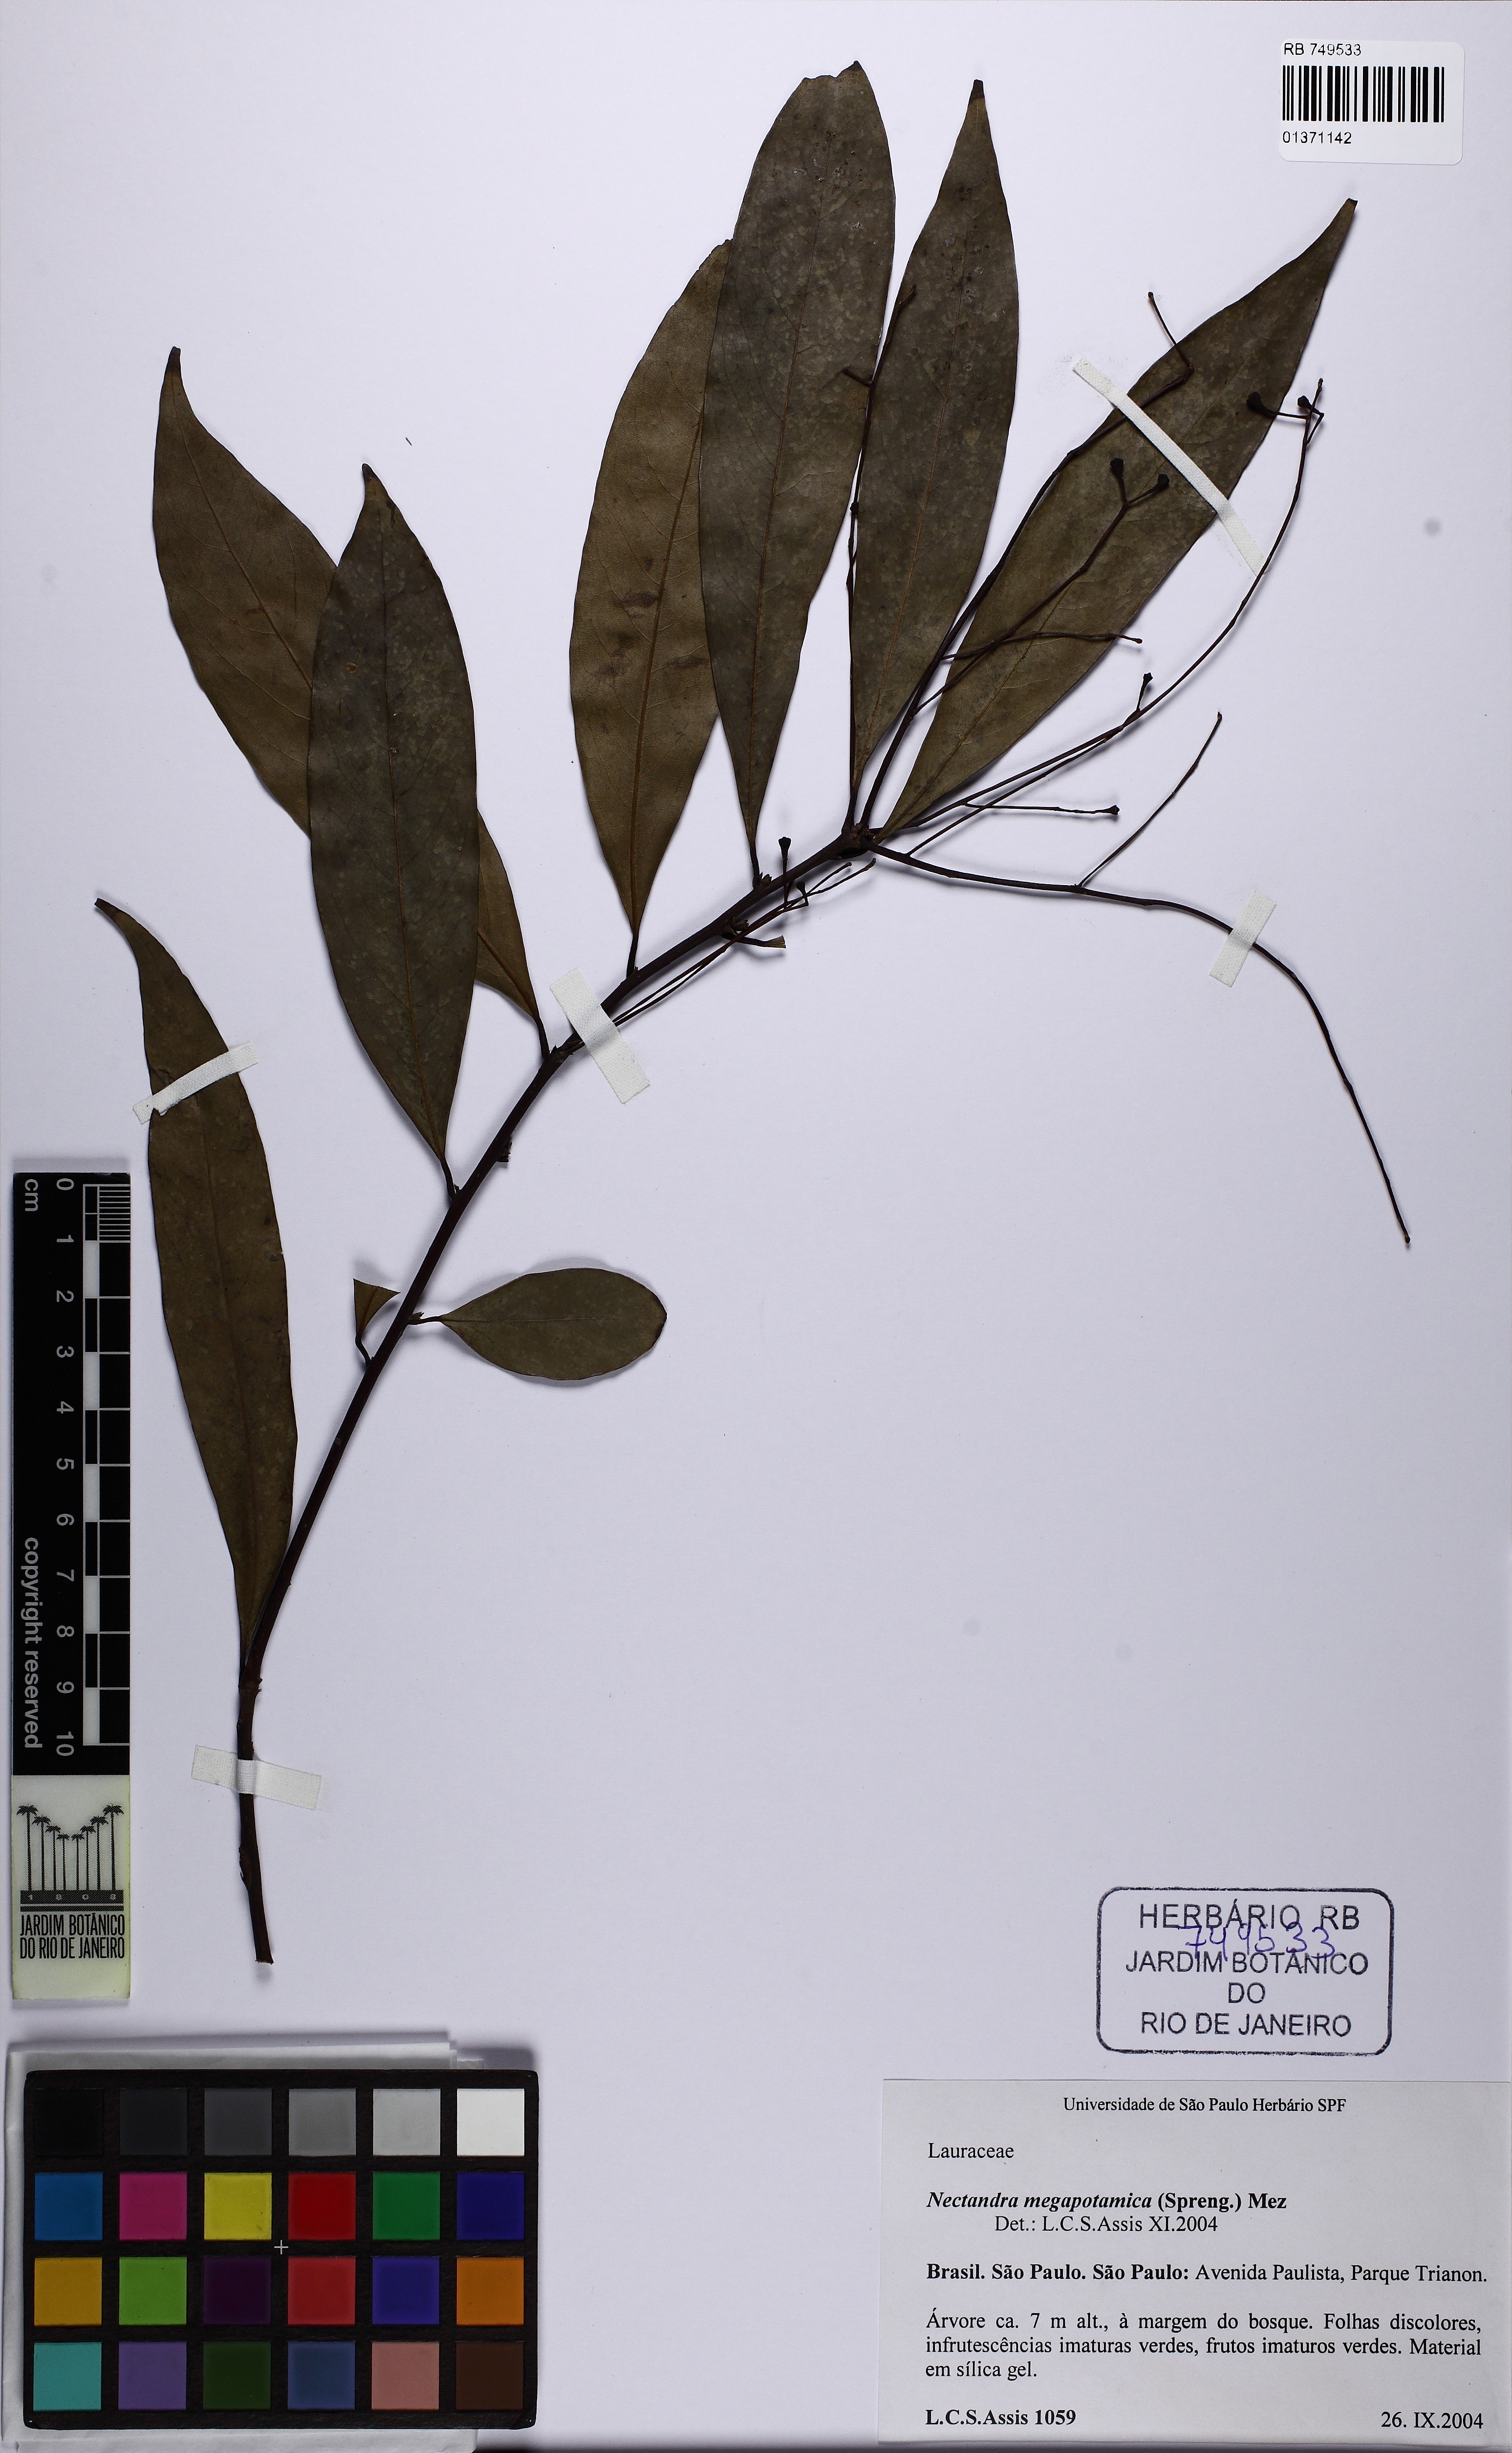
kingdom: Plantae
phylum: Tracheophyta
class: Magnoliopsida
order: Laurales
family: Lauraceae
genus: Nectandra
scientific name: Nectandra megapotamica
